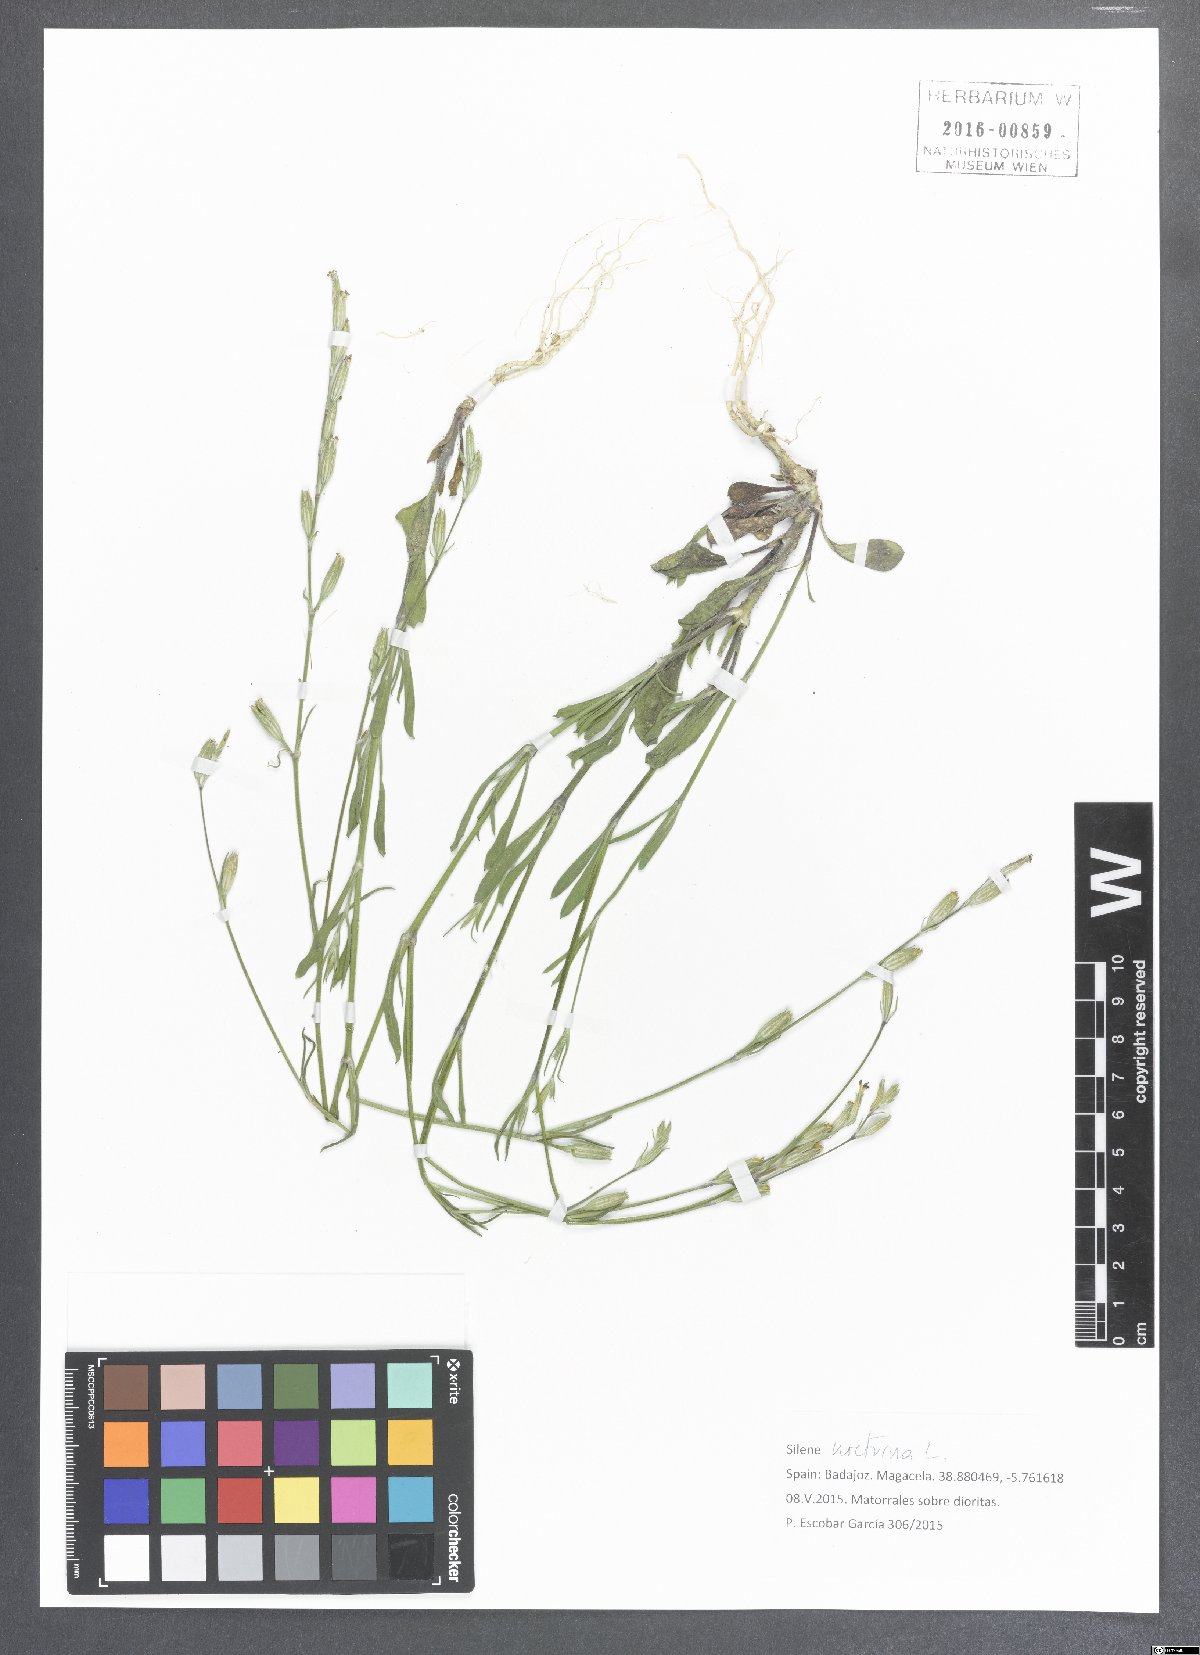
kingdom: Plantae
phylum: Tracheophyta
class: Magnoliopsida
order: Caryophyllales
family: Caryophyllaceae
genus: Silene
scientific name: Silene nocturna
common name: Mediterranean catchfly
